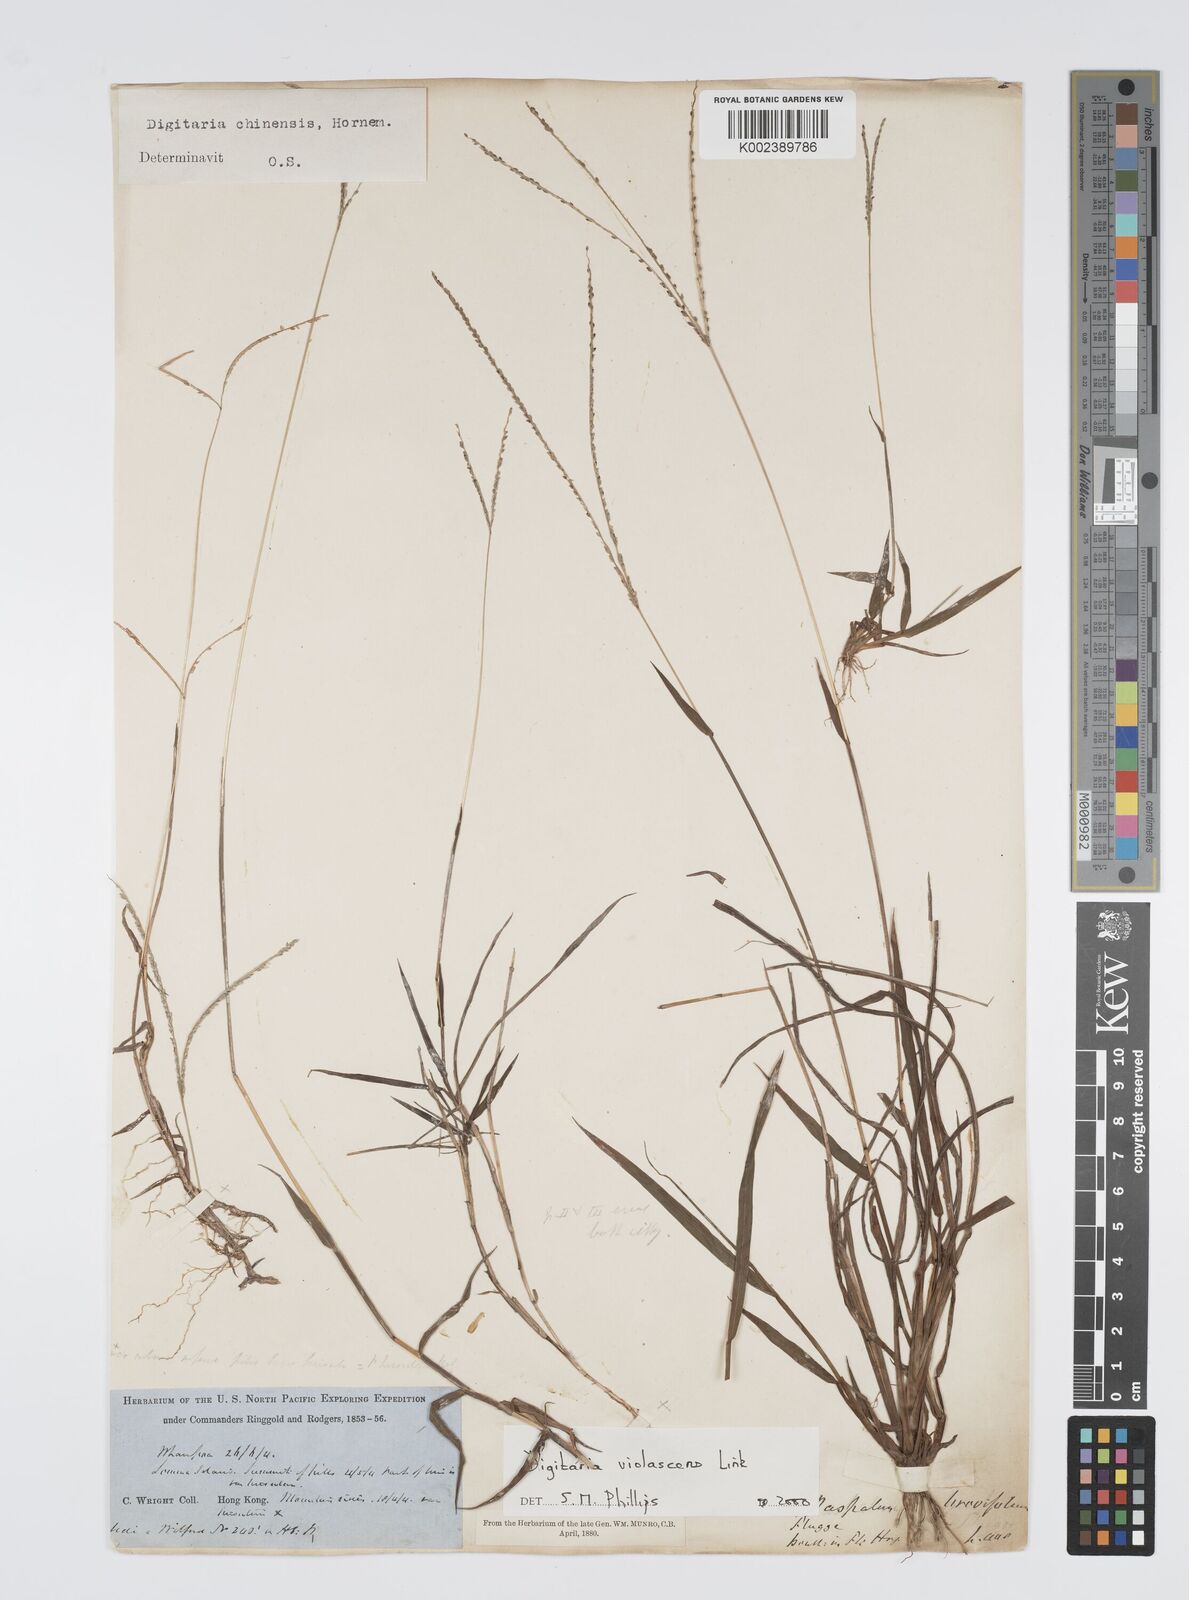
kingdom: Plantae
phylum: Tracheophyta
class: Liliopsida
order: Poales
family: Poaceae
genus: Digitaria
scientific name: Digitaria violascens
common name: Violet crabgrass
